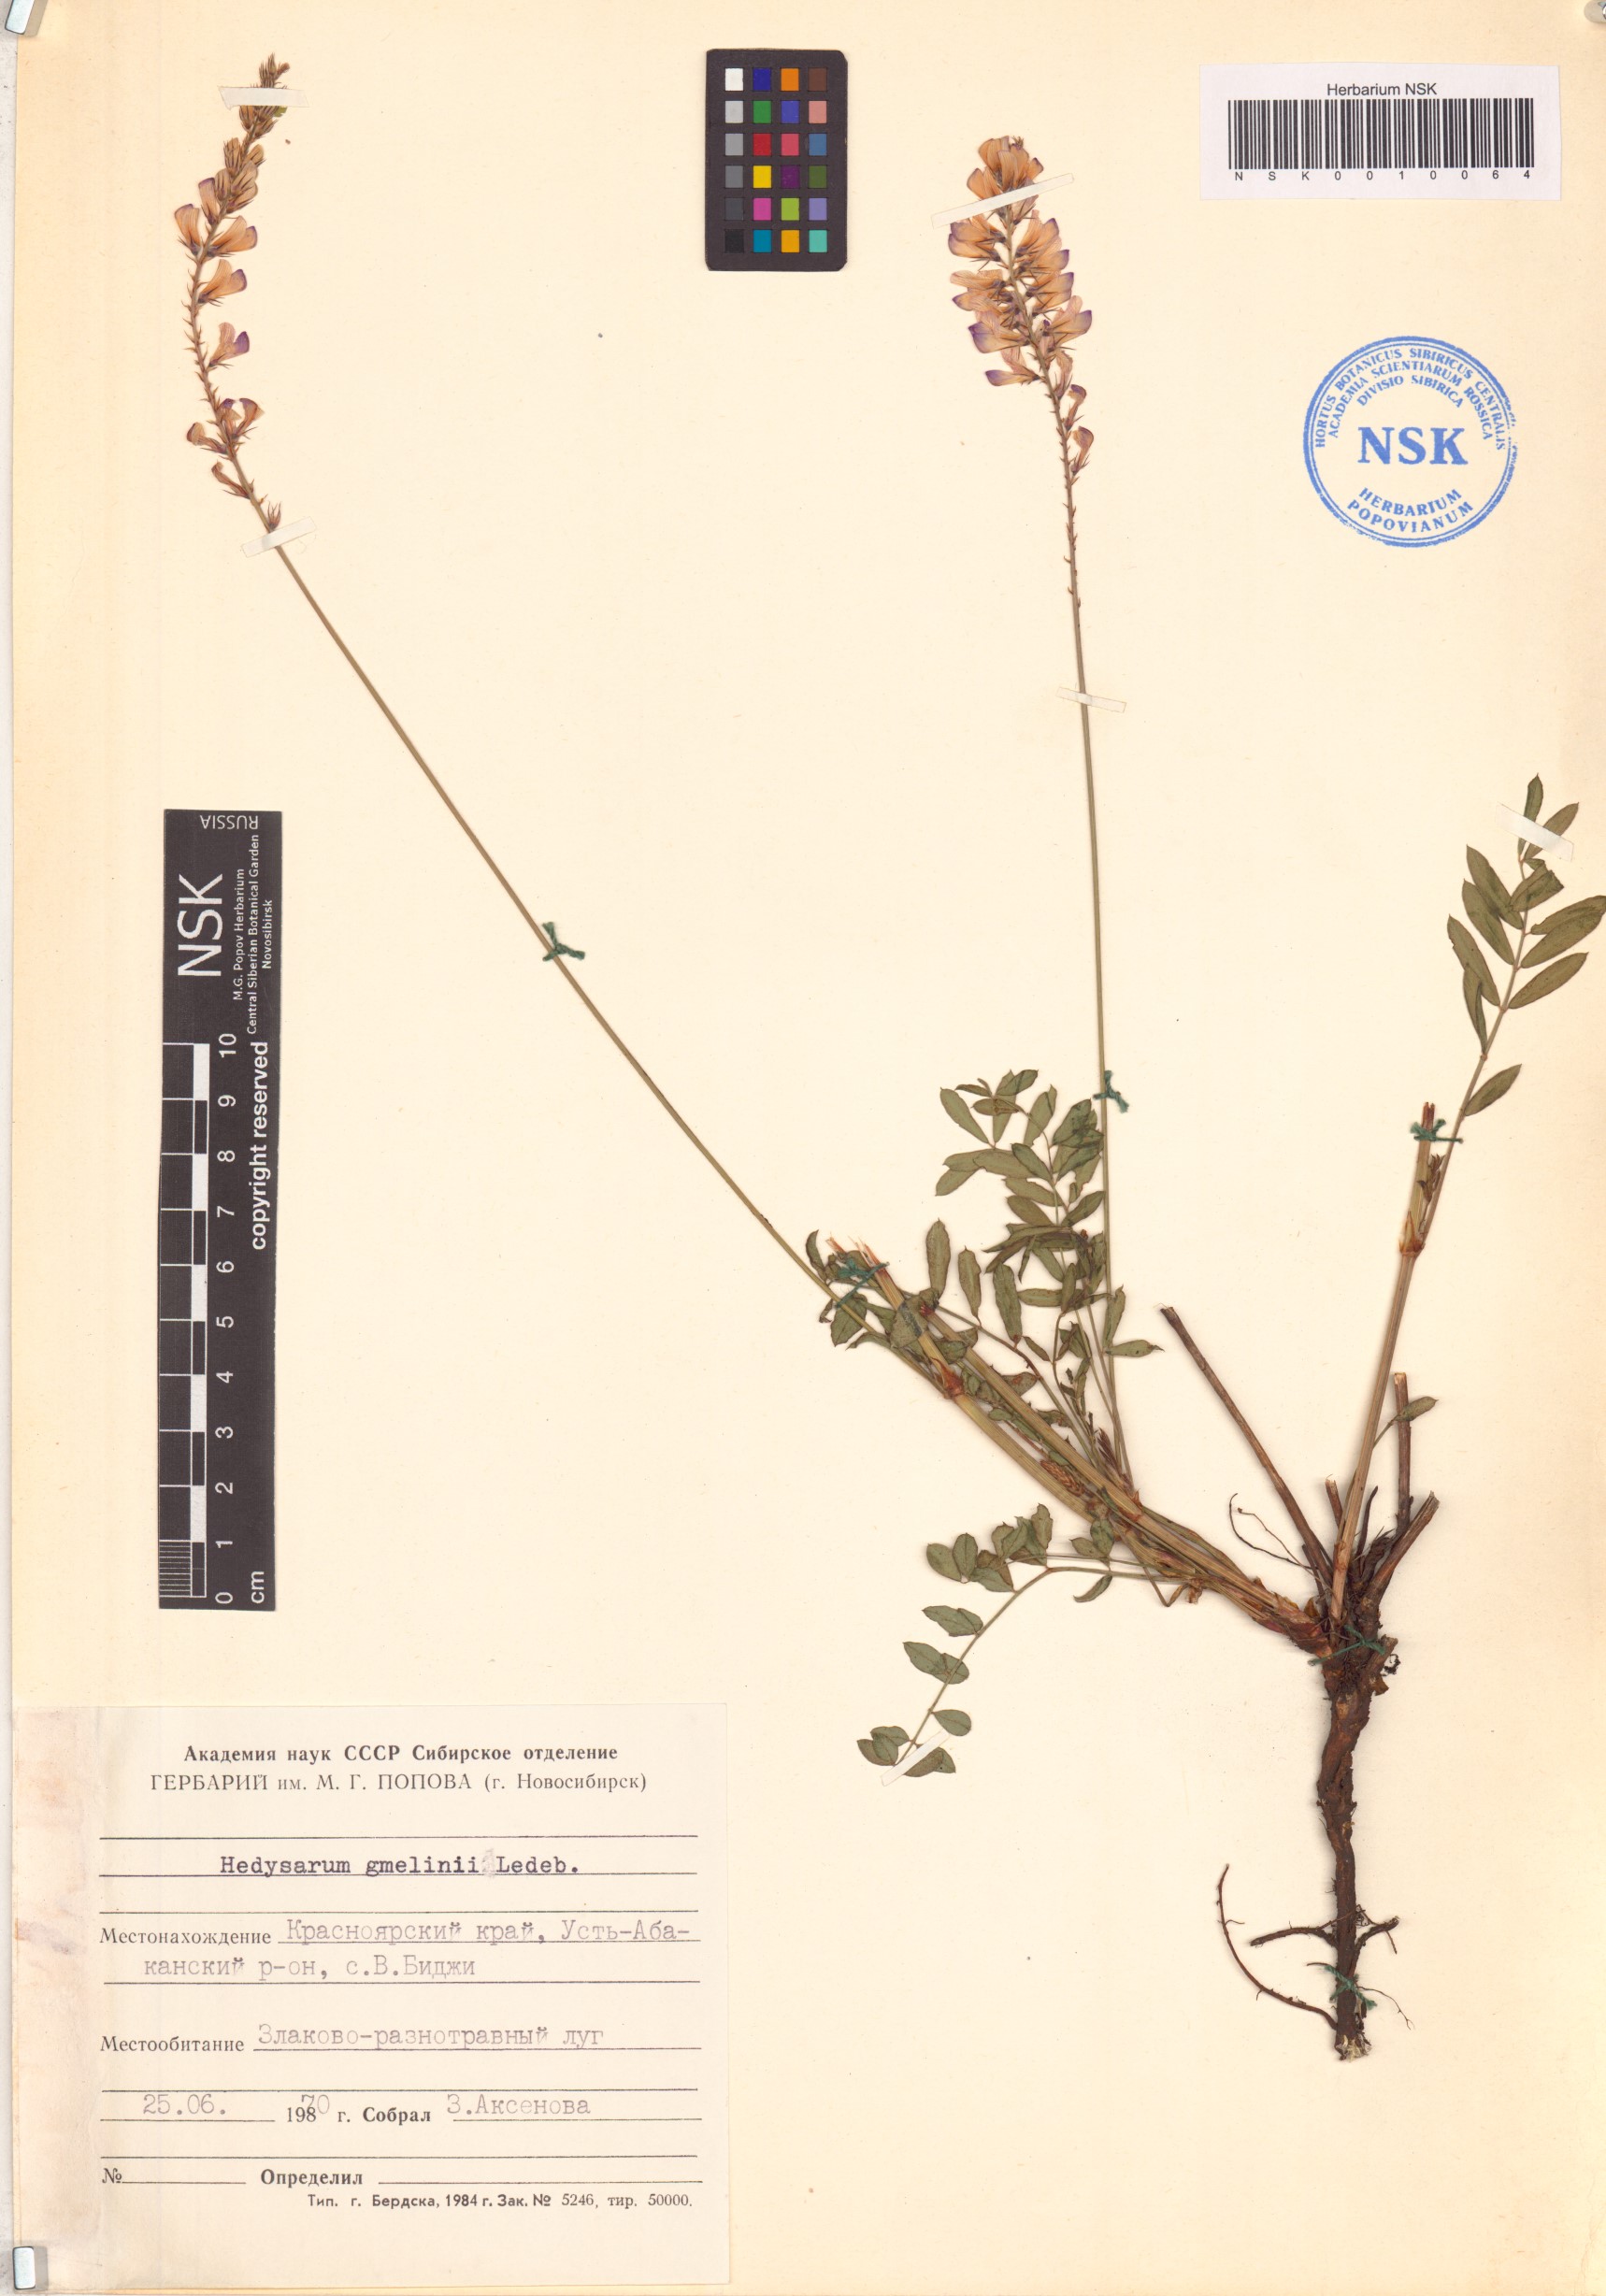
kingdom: Plantae
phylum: Tracheophyta
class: Magnoliopsida
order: Fabales
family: Fabaceae
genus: Hedysarum
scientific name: Hedysarum gmelinii
